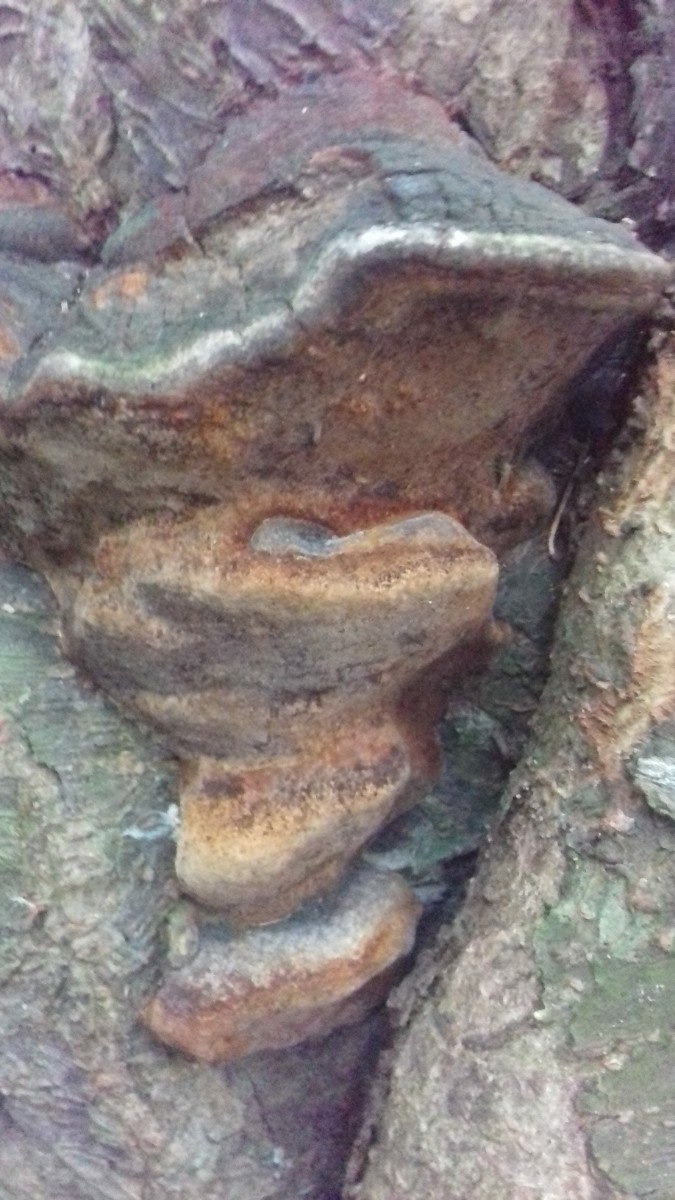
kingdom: Fungi
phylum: Basidiomycota
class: Agaricomycetes
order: Hymenochaetales
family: Hymenochaetaceae
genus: Phellinus
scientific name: Phellinus pomaceus
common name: blomme-ildporesvamp
